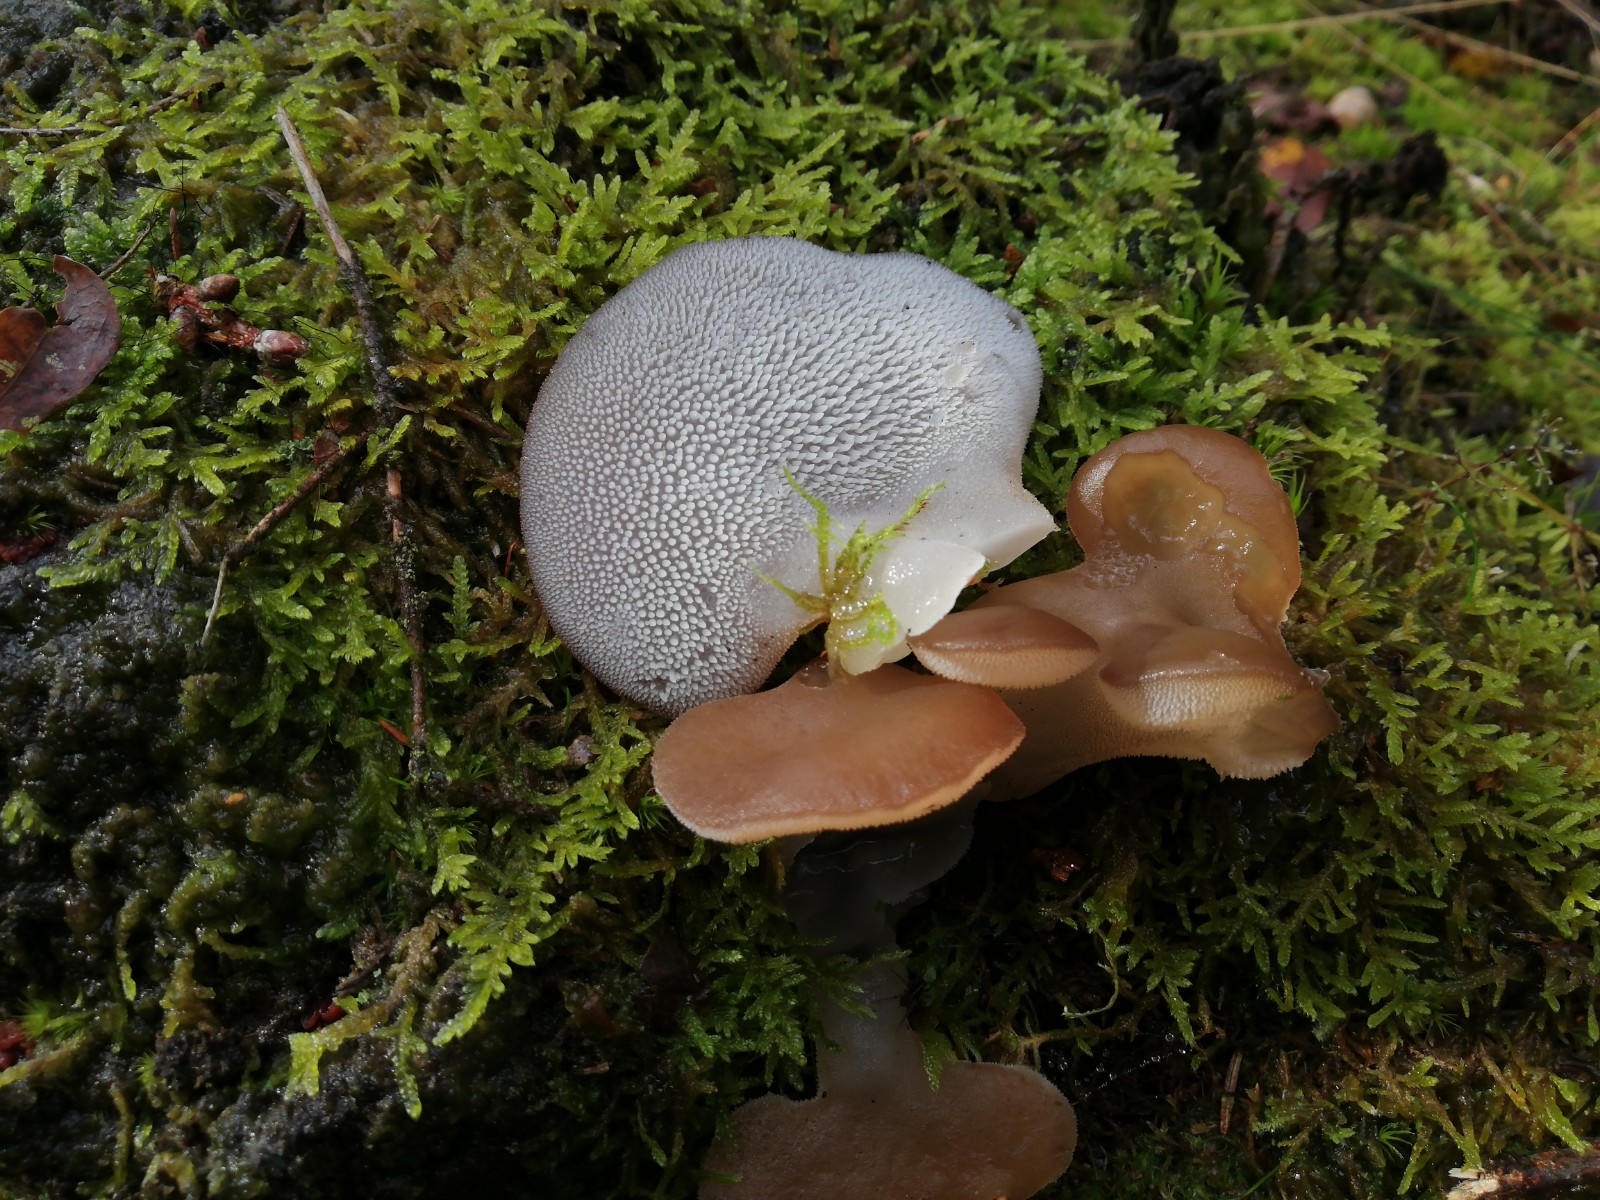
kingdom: Fungi
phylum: Basidiomycota
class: Agaricomycetes
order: Auriculariales
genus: Pseudohydnum
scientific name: Pseudohydnum gelatinosum
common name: bævretand
